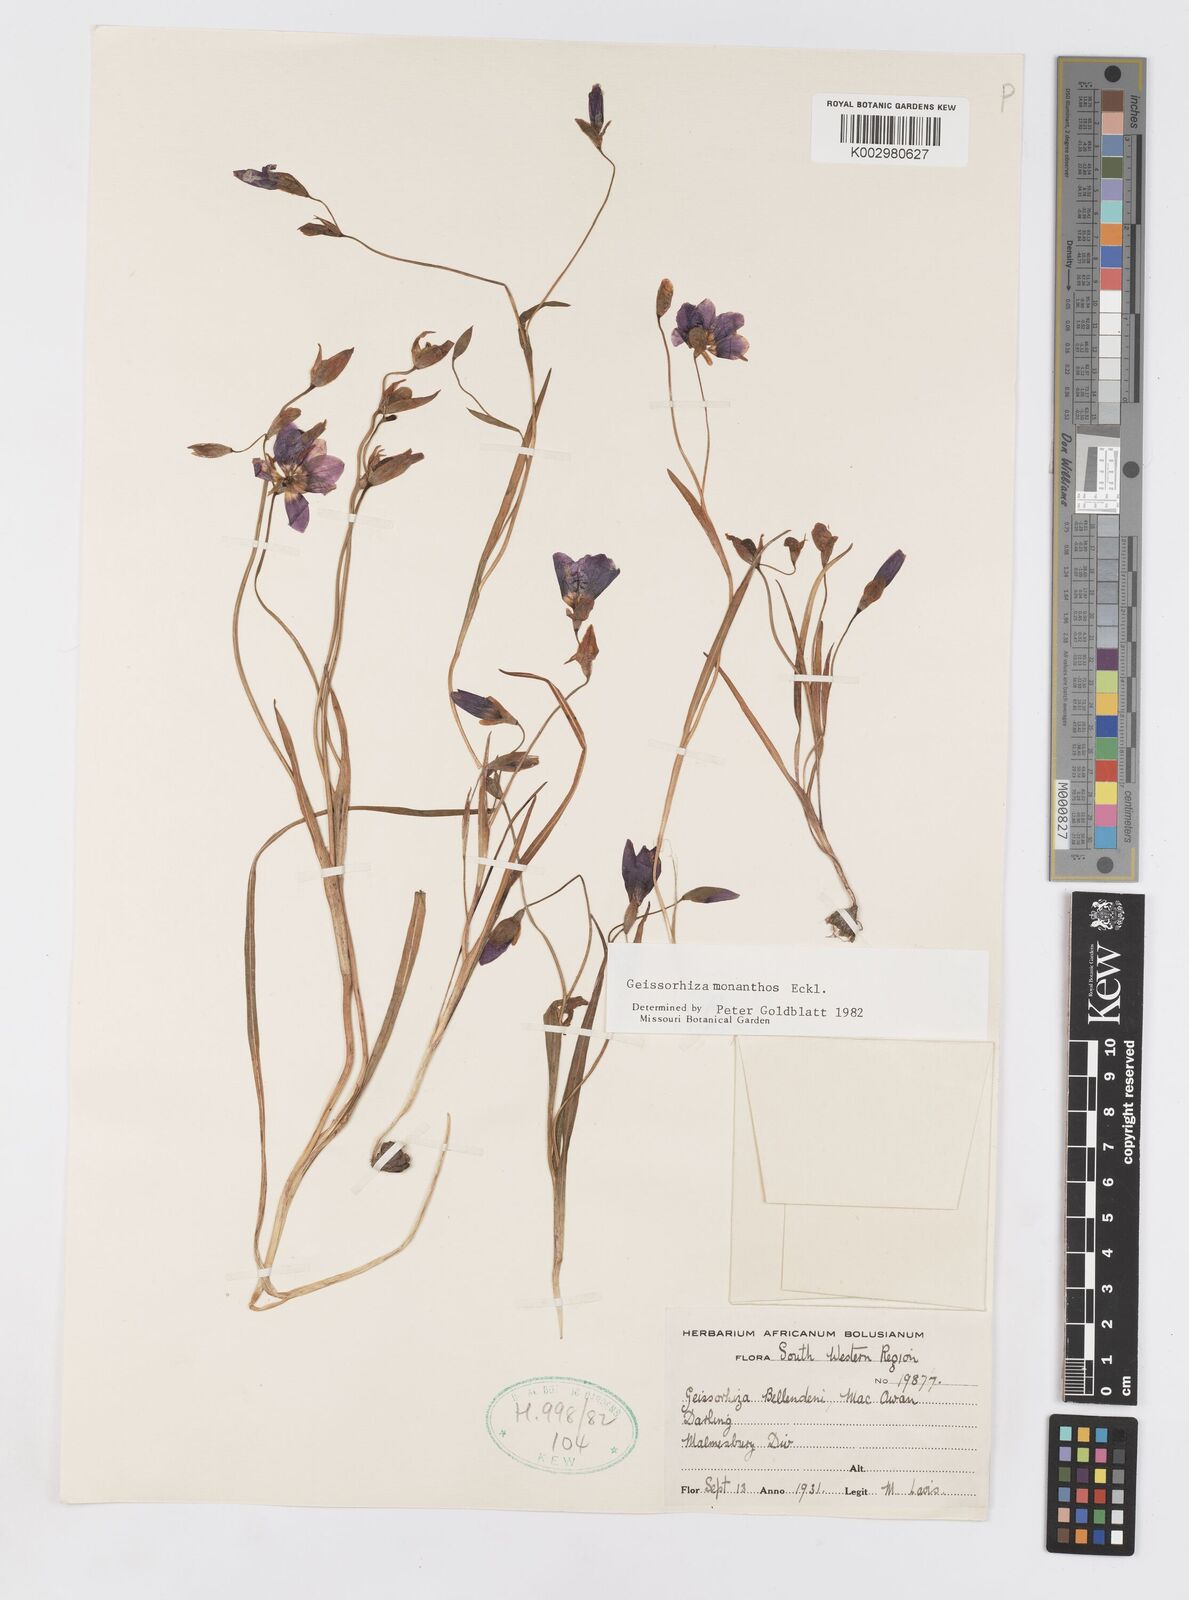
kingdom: Plantae
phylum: Tracheophyta
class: Liliopsida
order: Asparagales
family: Iridaceae
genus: Geissorhiza
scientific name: Geissorhiza monanthos
